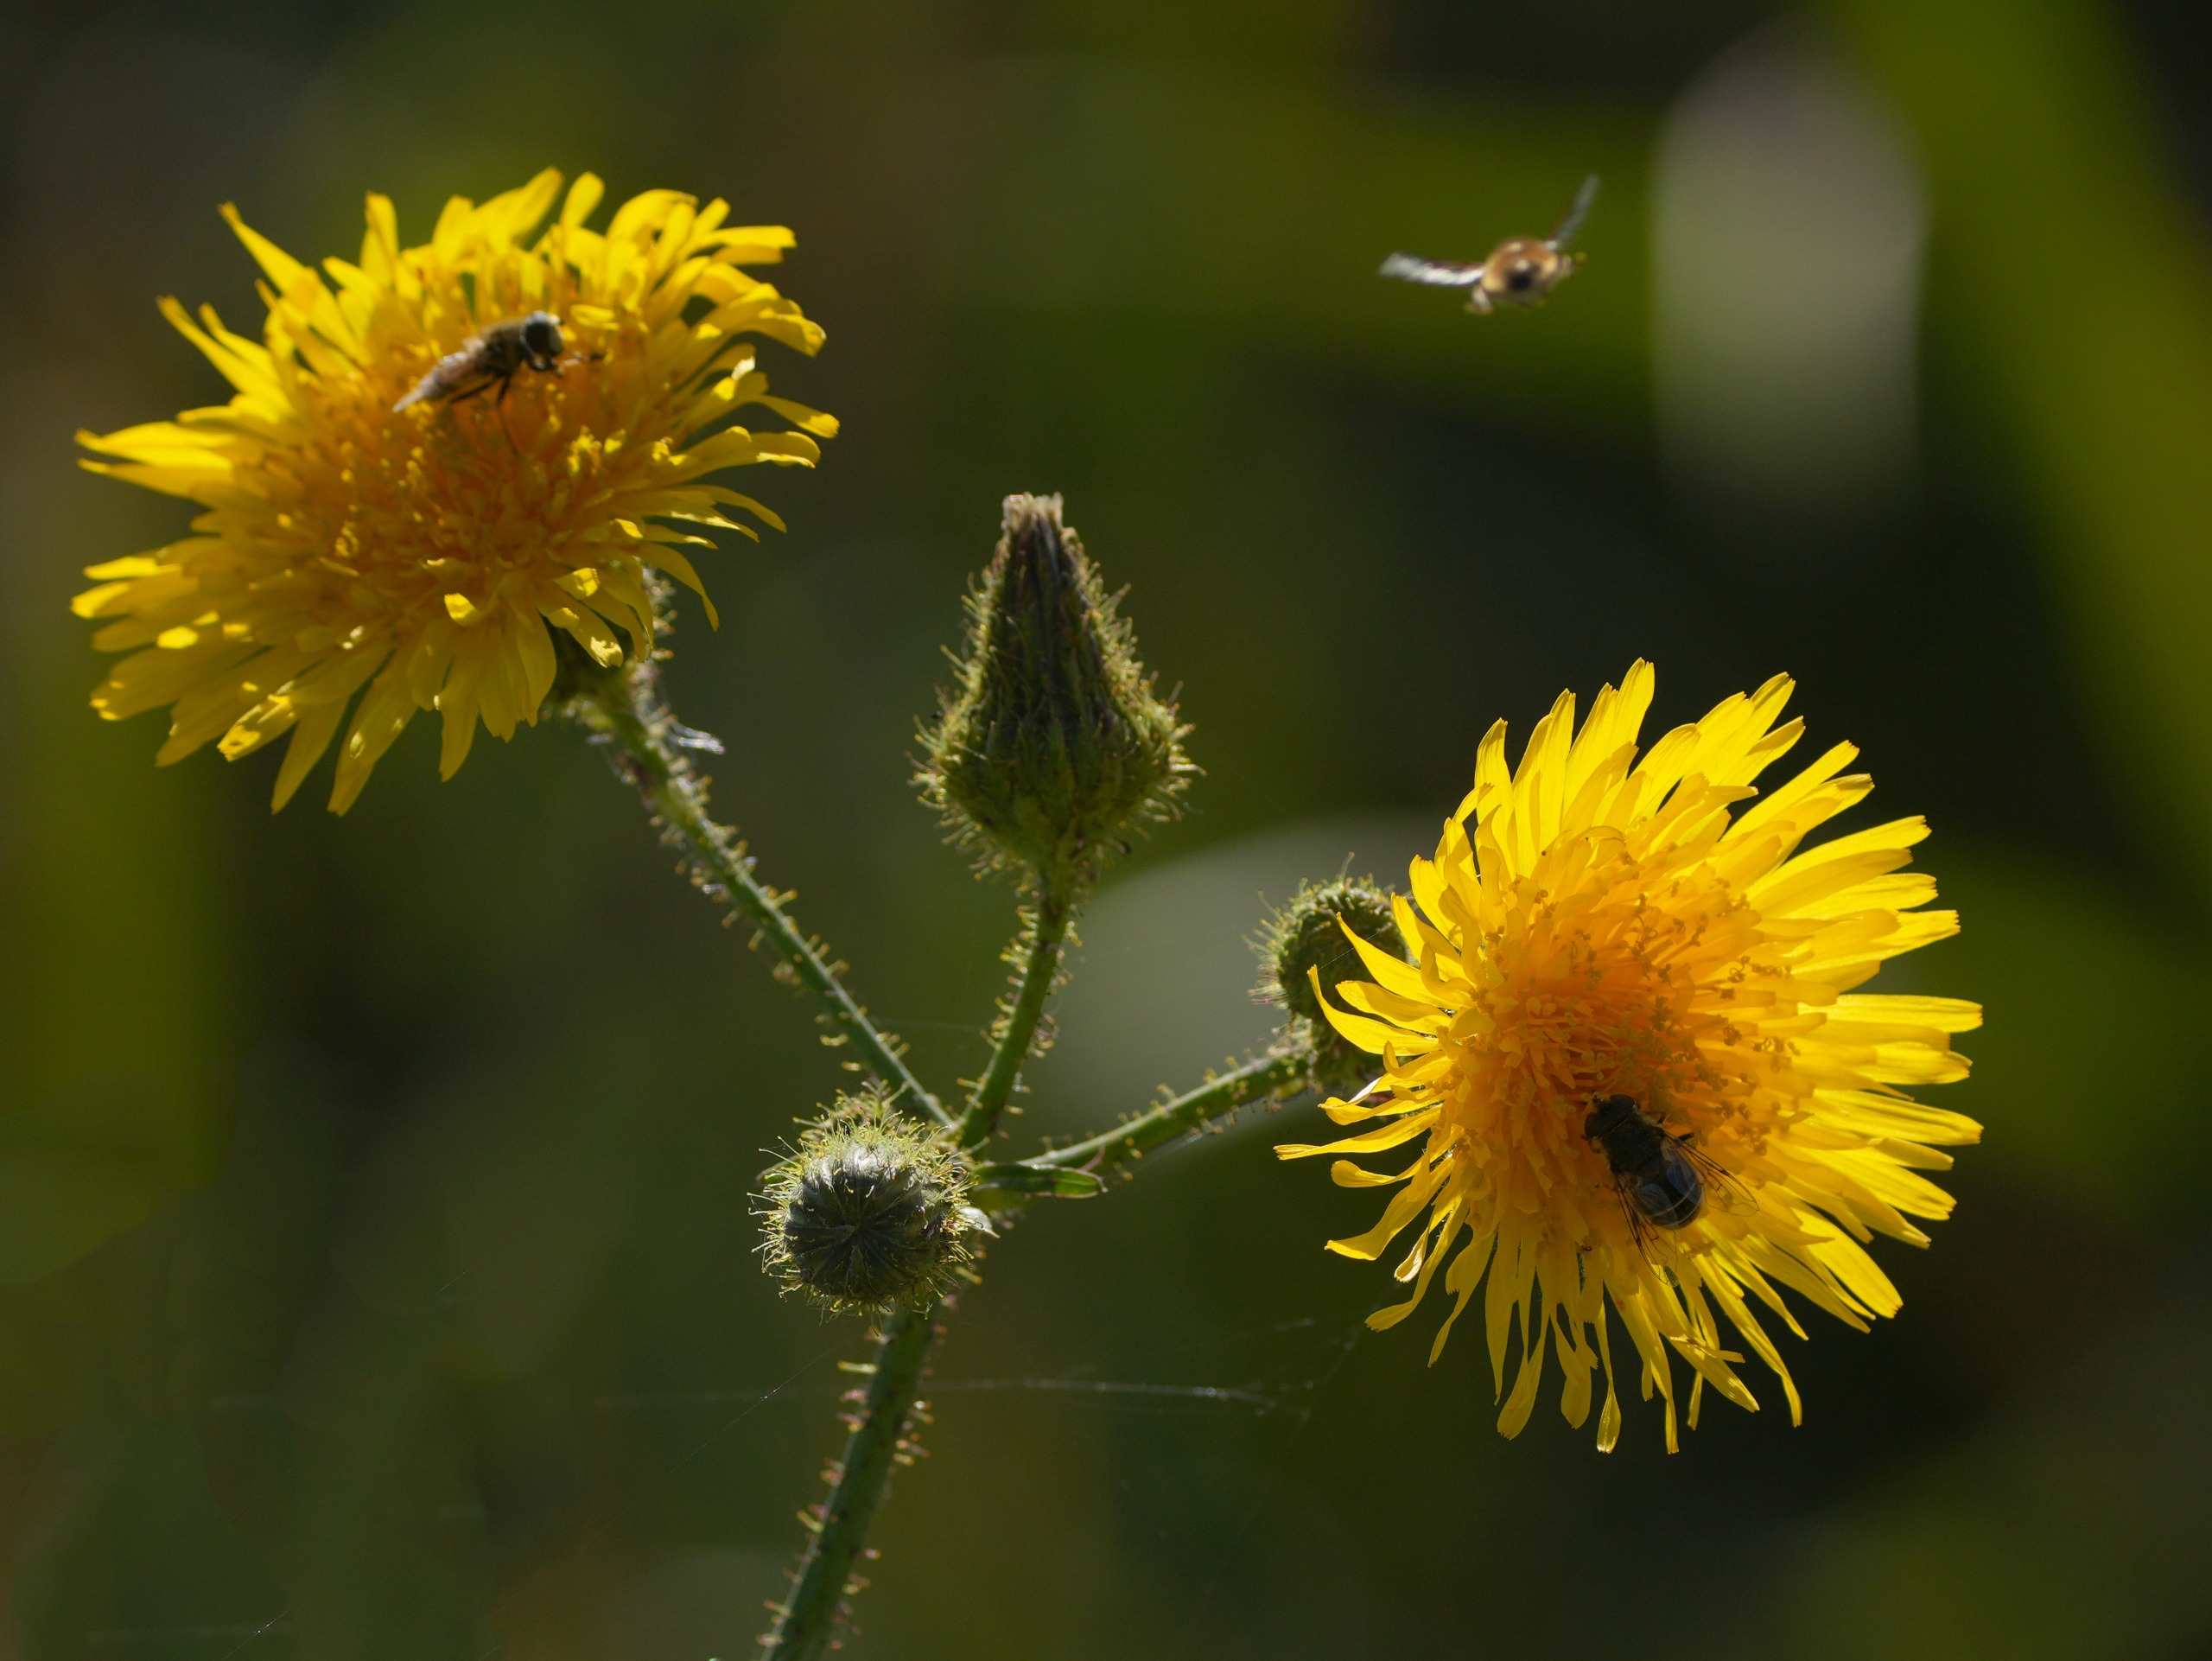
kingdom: Plantae
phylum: Tracheophyta
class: Magnoliopsida
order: Asterales
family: Asteraceae
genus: Sonchus
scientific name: Sonchus arvensis
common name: Ager-svinemælk
